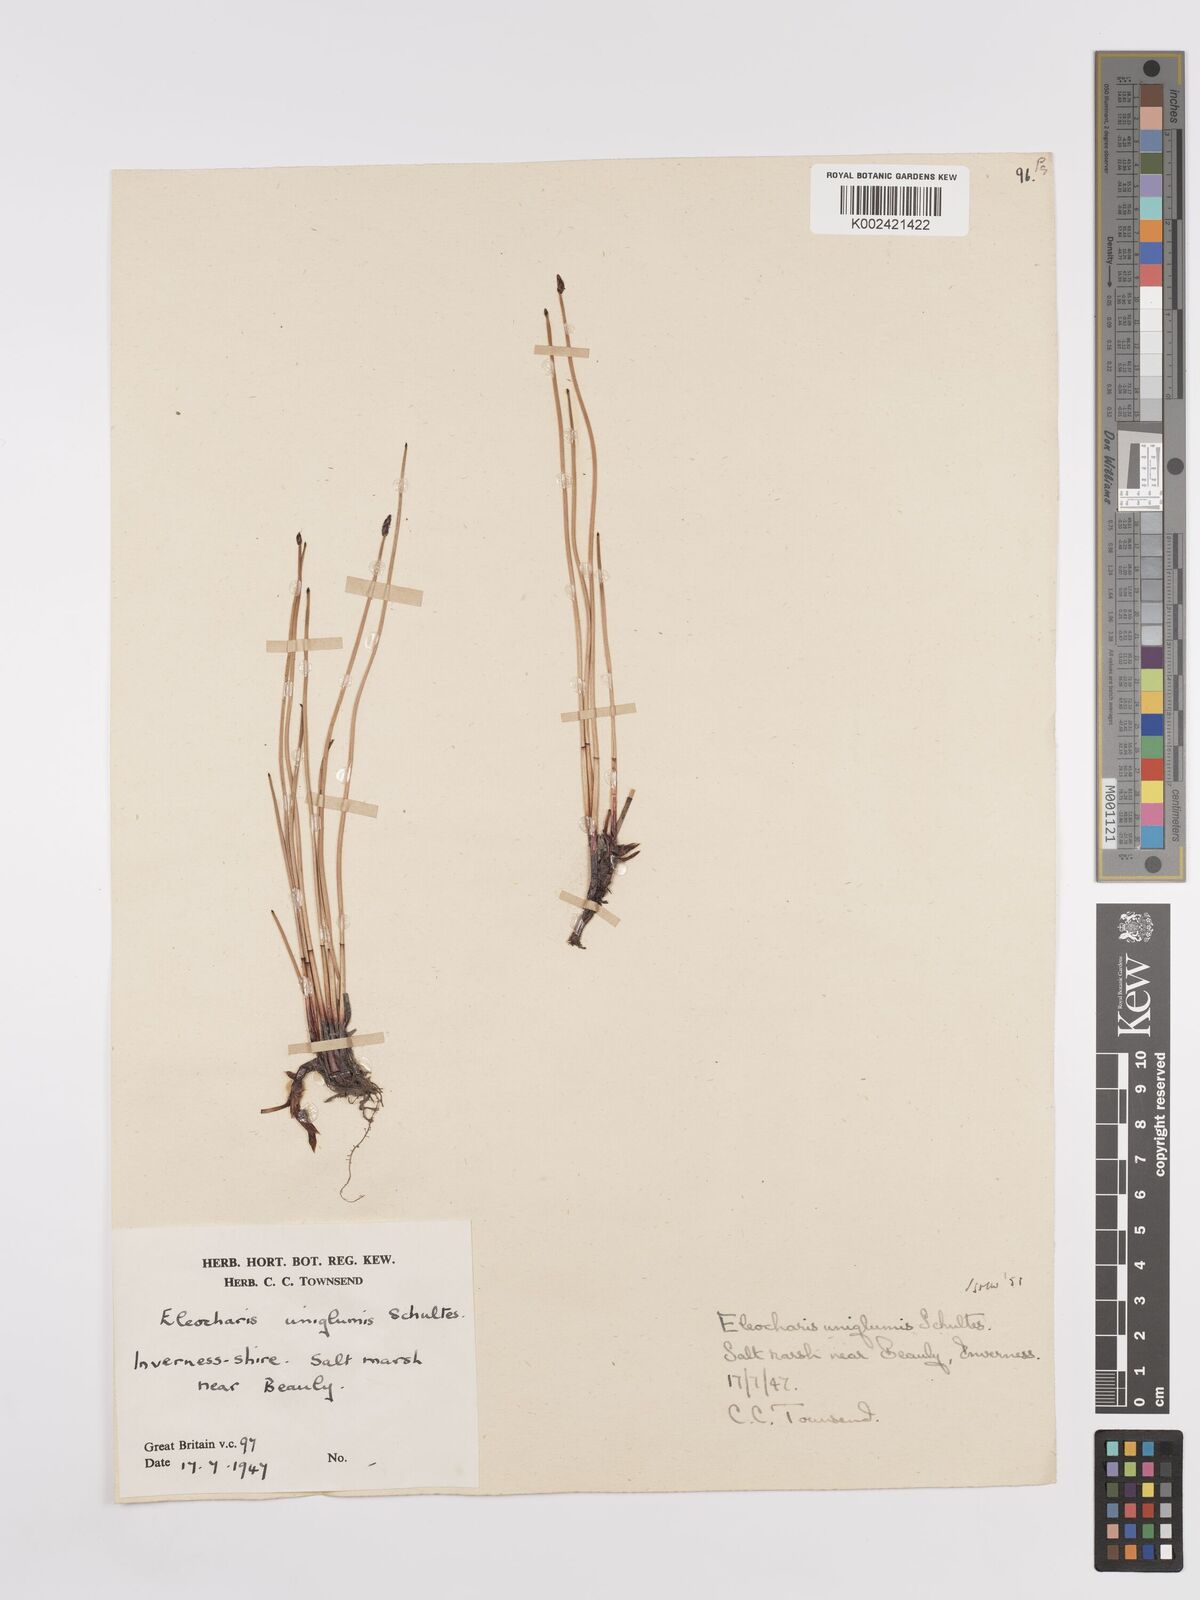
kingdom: Plantae
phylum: Tracheophyta
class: Liliopsida
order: Poales
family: Cyperaceae
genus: Eleocharis
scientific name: Eleocharis uniglumis
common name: Slender spike-rush
